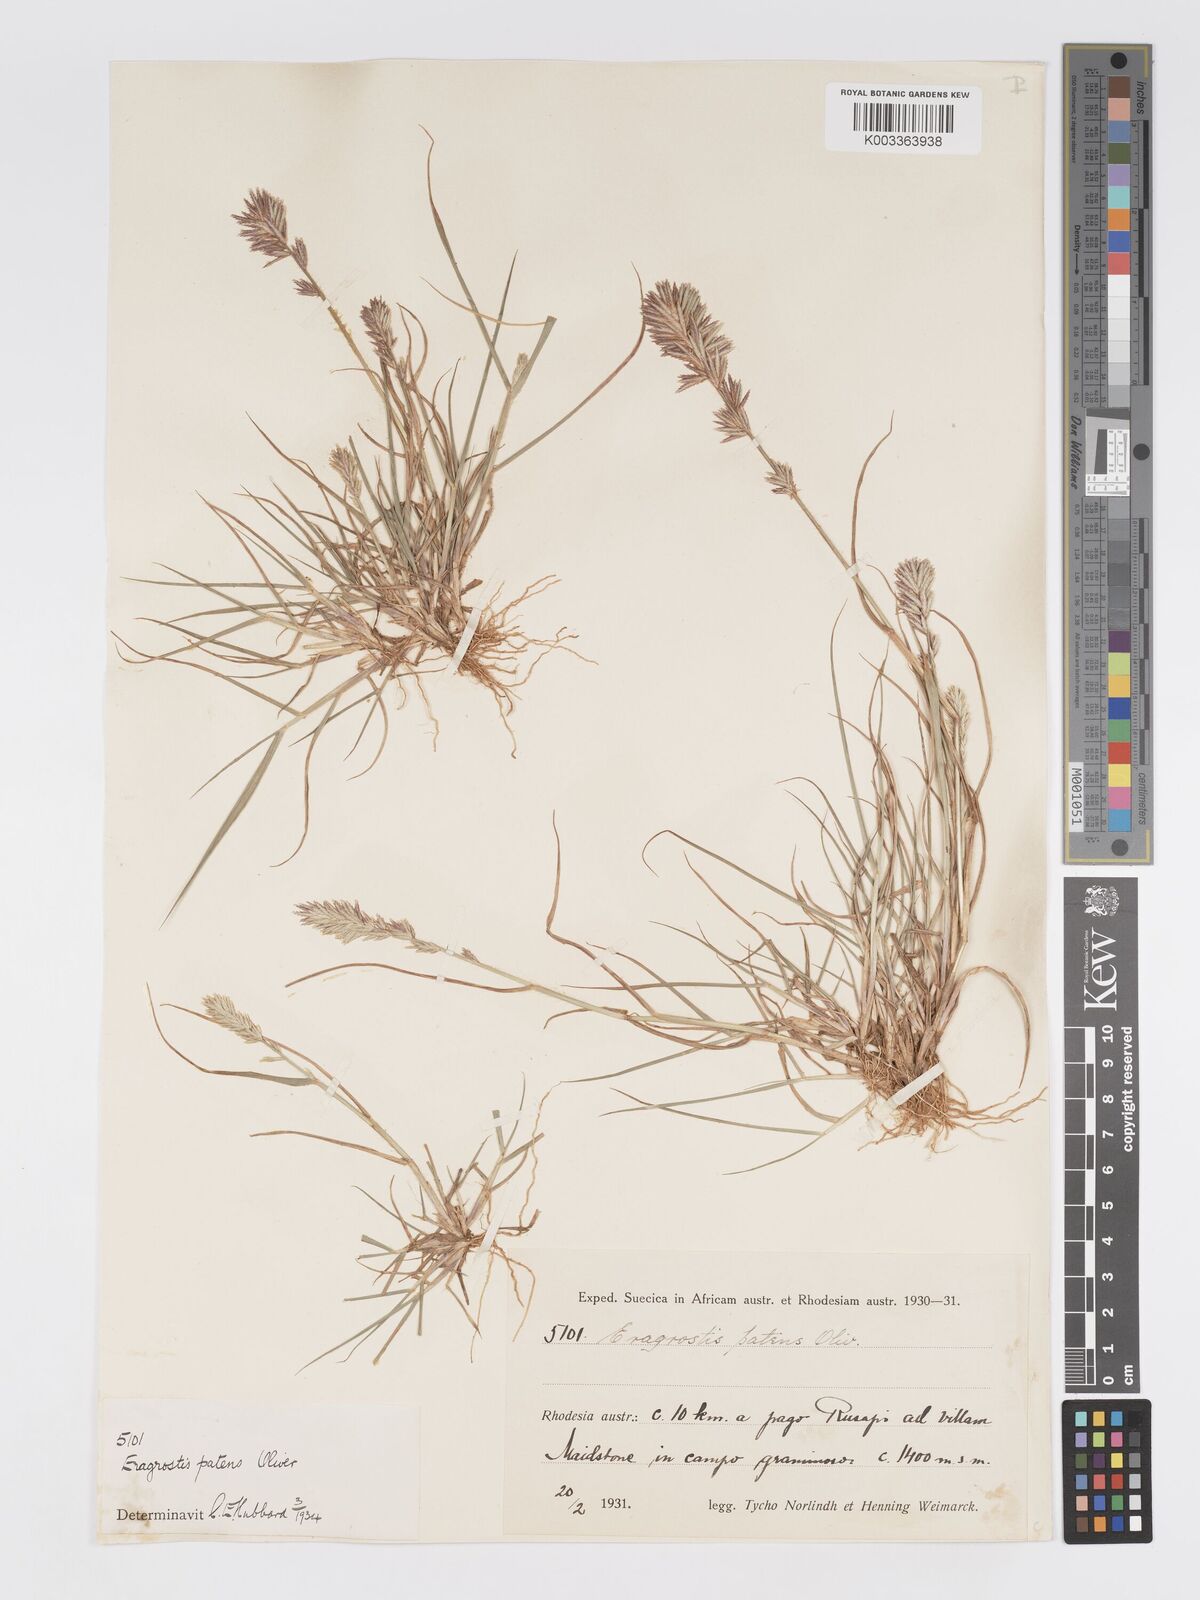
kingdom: Plantae
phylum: Tracheophyta
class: Liliopsida
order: Poales
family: Poaceae
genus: Eragrostis
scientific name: Eragrostis patens
